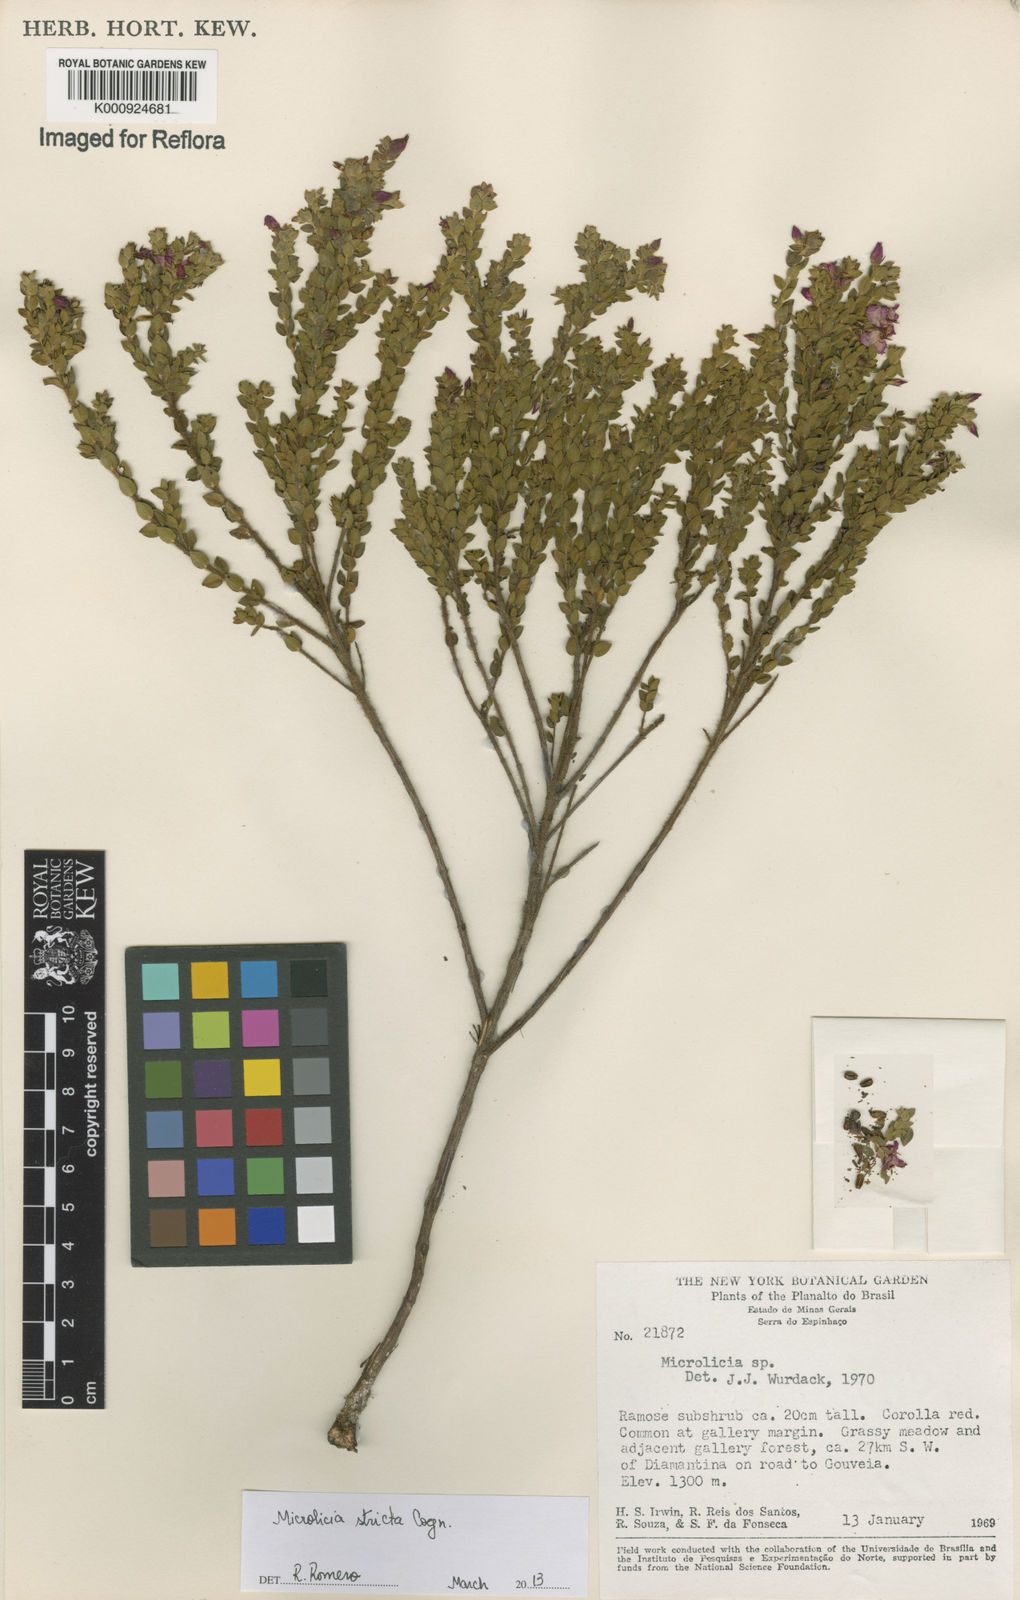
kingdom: Plantae
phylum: Tracheophyta
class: Magnoliopsida
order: Myrtales
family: Melastomataceae
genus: Microlicia
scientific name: Microlicia stricta
